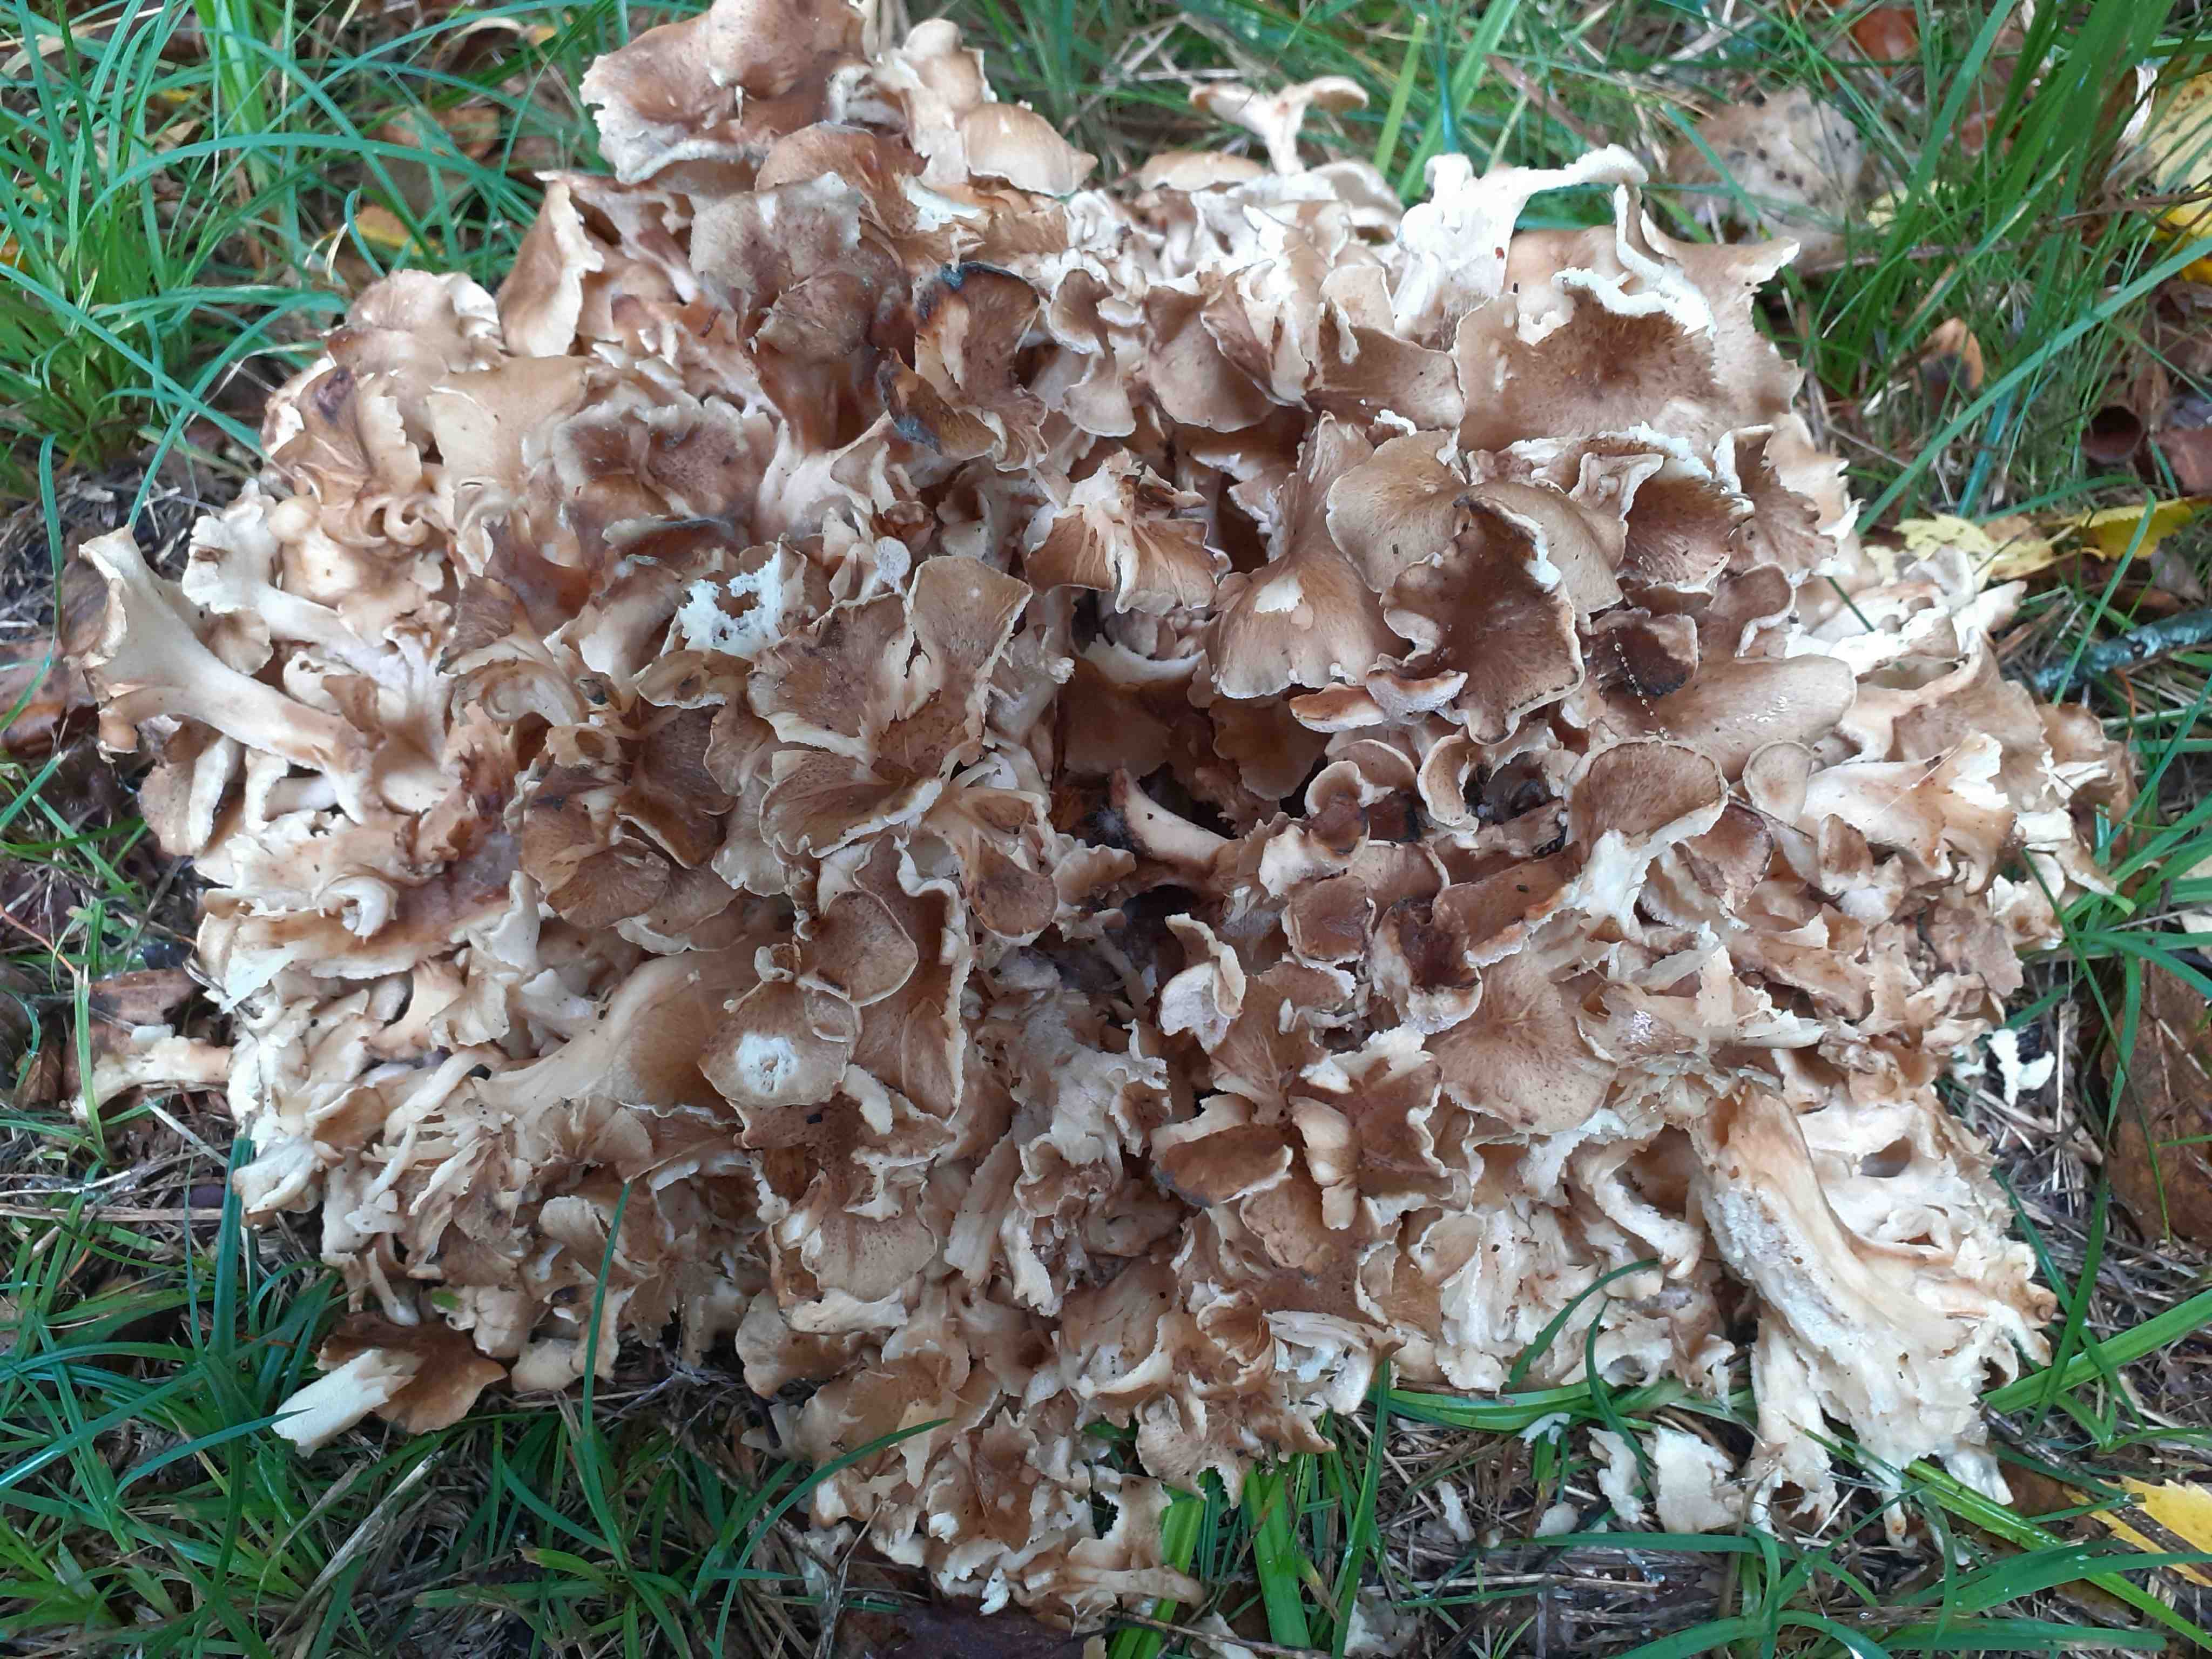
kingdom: Fungi
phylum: Basidiomycota
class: Agaricomycetes
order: Polyporales
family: Polyporaceae
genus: Polyporus
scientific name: Polyporus umbellatus
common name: skærmformet stilkporesvamp
